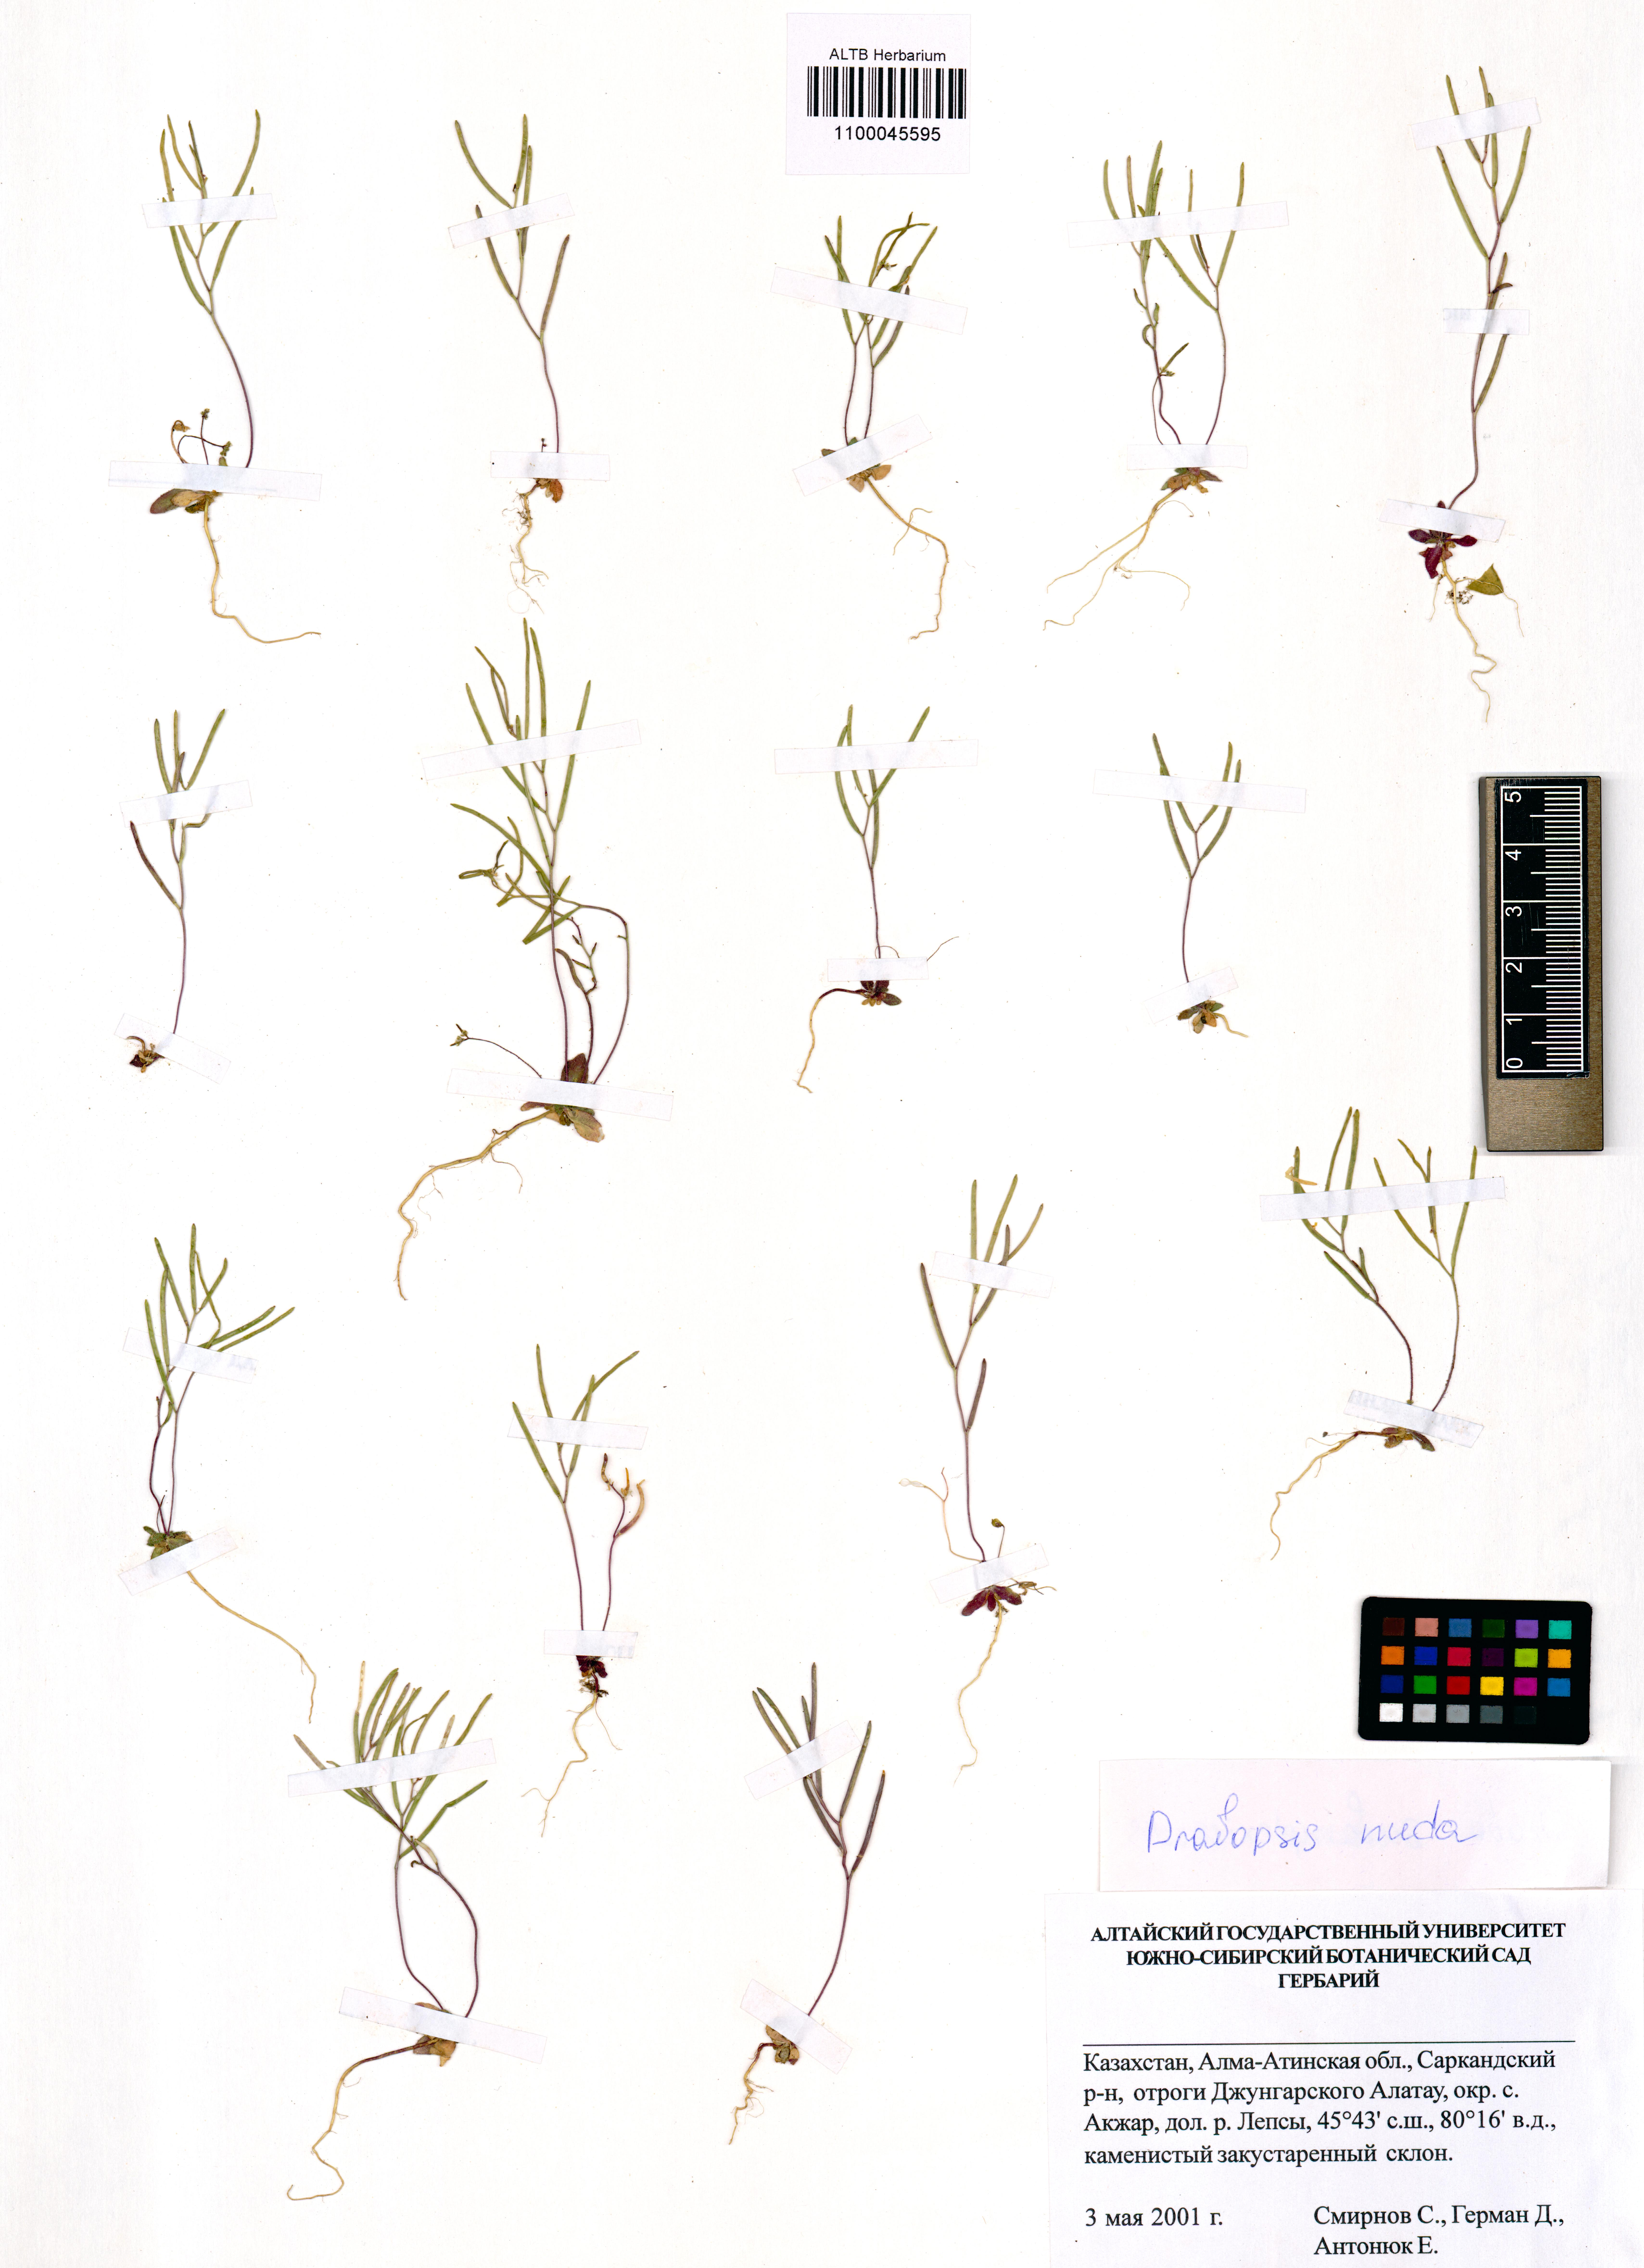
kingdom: Plantae
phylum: Tracheophyta
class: Magnoliopsida
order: Brassicales
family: Brassicaceae
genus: Draba
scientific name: Draba nuda
